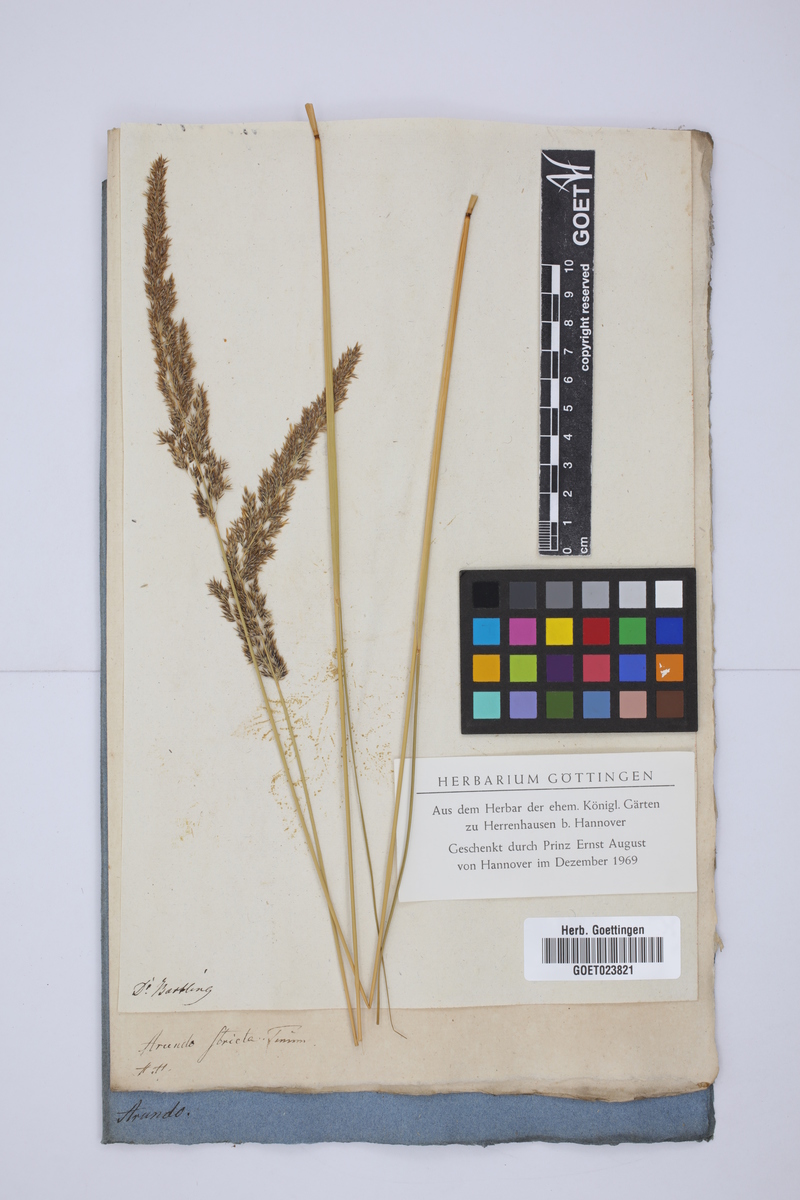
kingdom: Plantae
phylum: Tracheophyta
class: Liliopsida
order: Poales
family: Poaceae
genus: Calamagrostis
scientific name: Calamagrostis stricta
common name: Narrow small-reed
